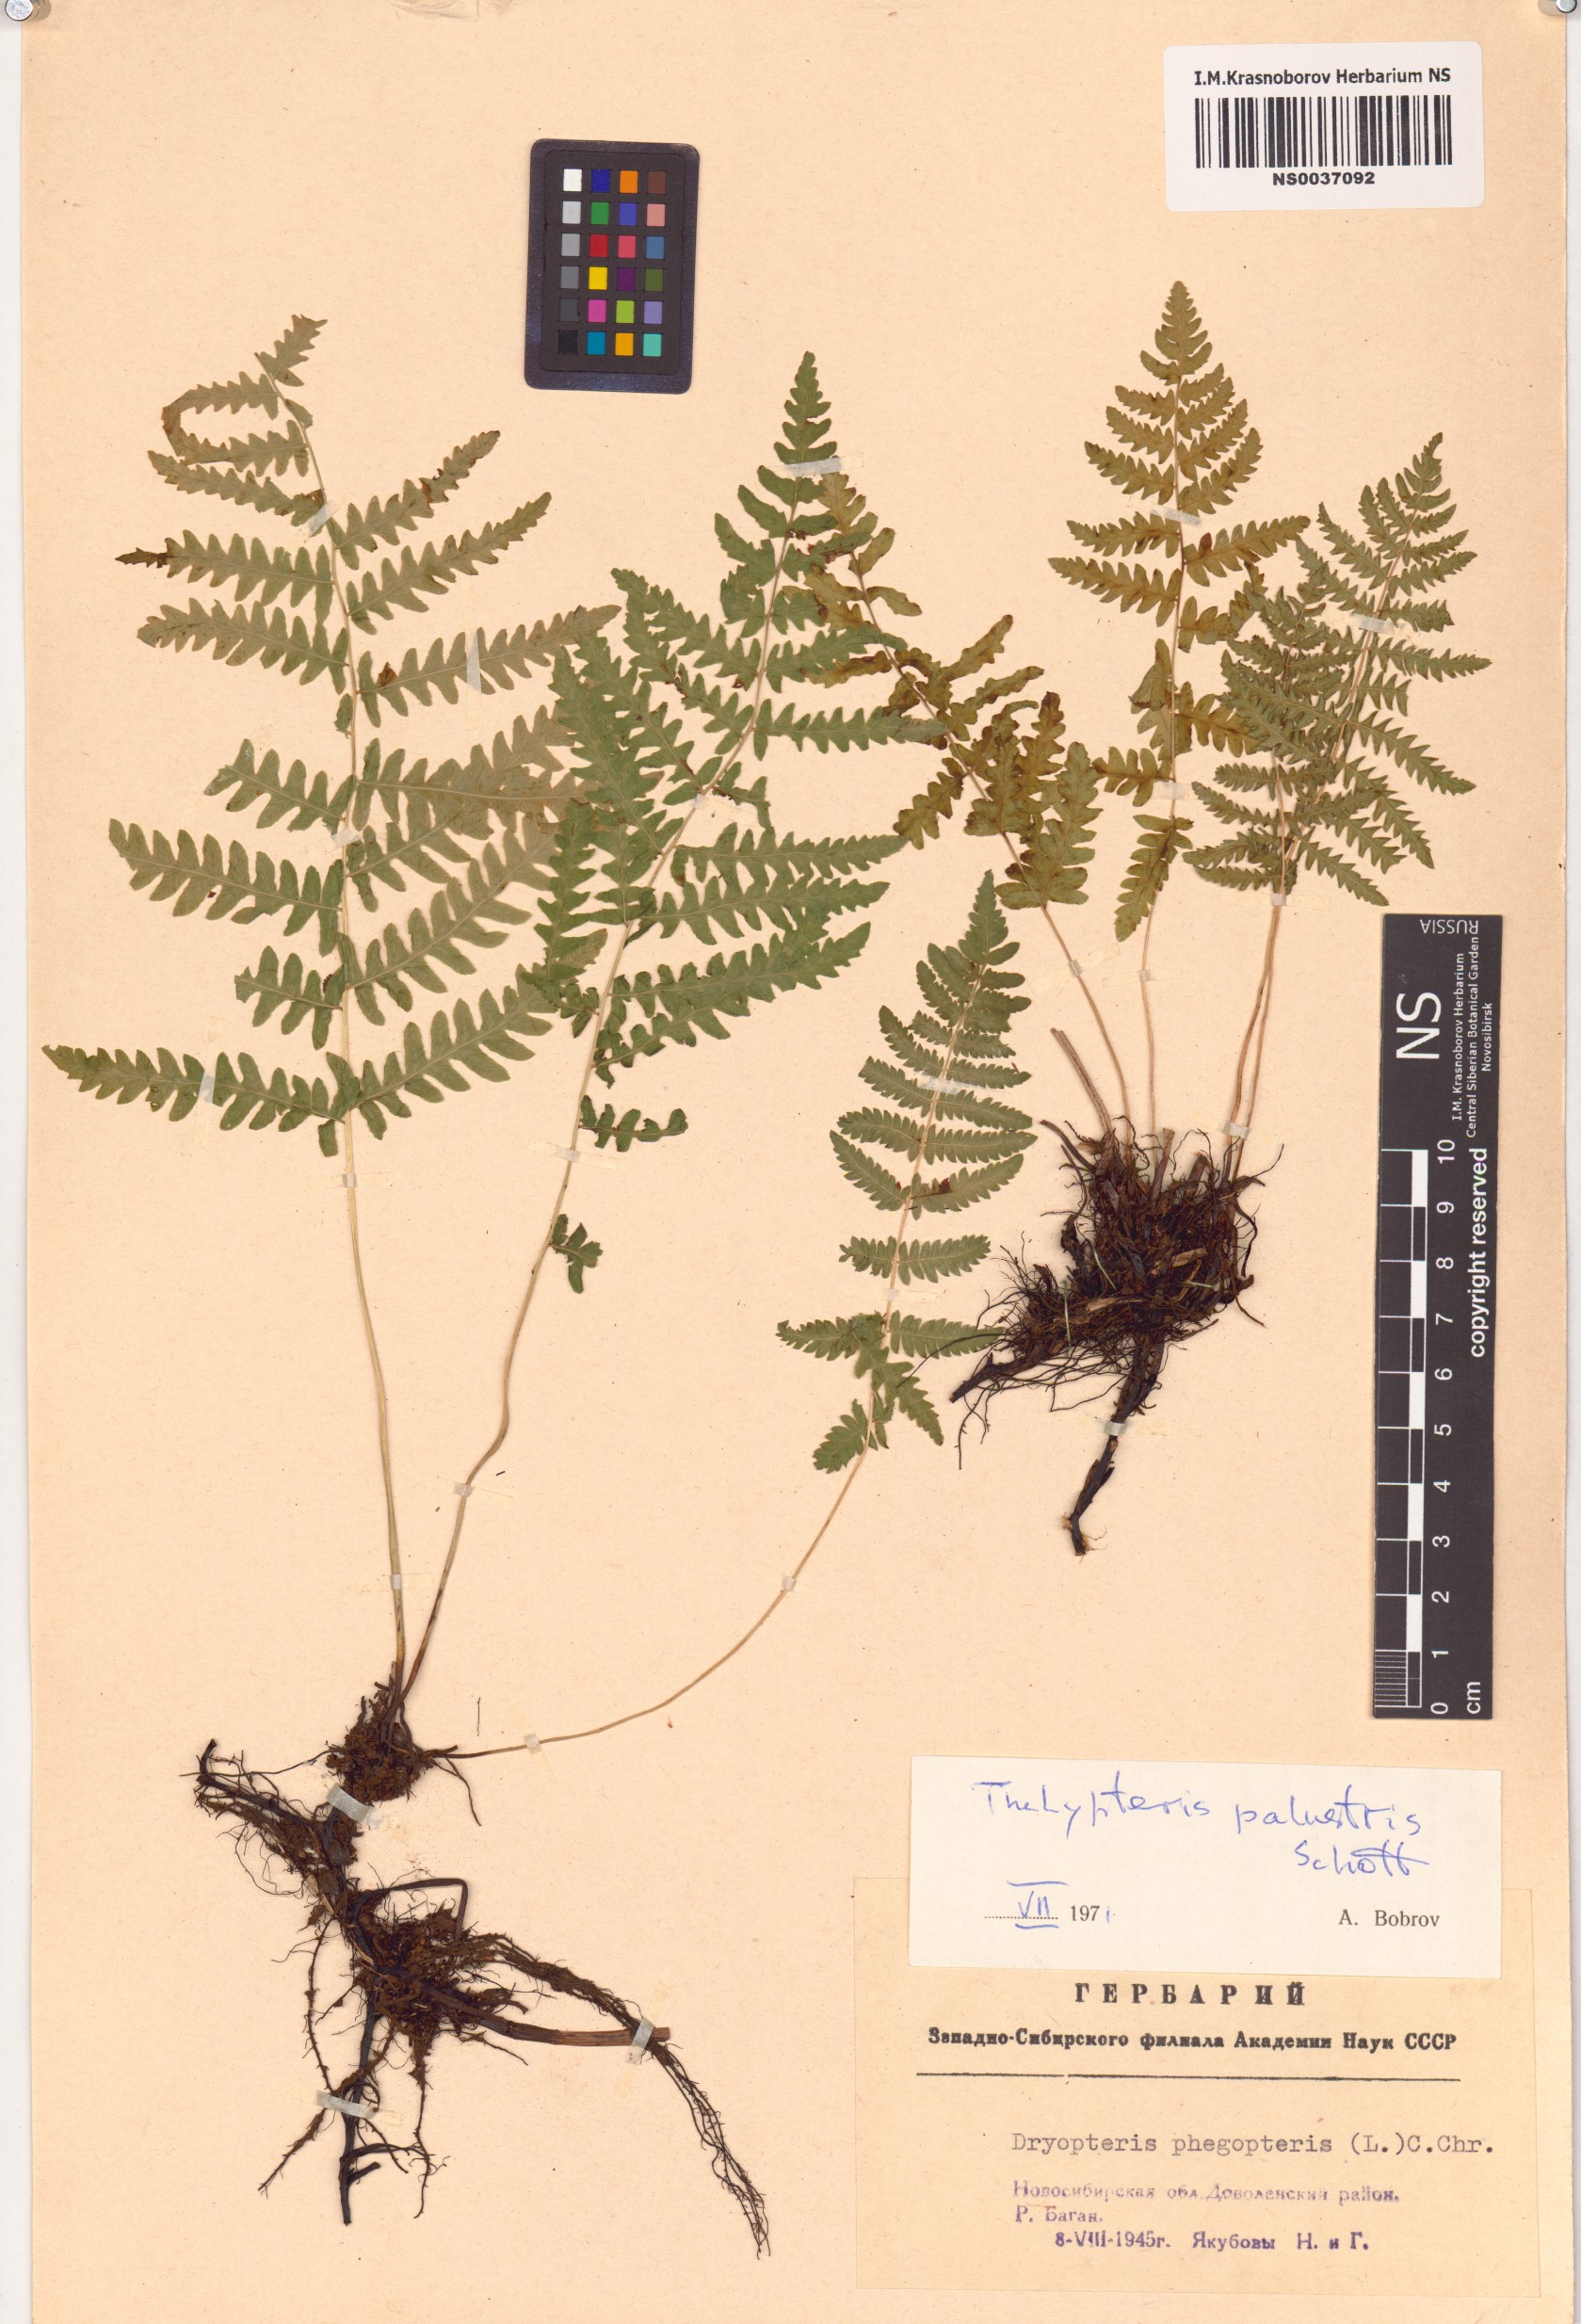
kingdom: Plantae
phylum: Tracheophyta
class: Polypodiopsida
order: Polypodiales
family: Thelypteridaceae
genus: Thelypteris
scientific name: Thelypteris palustris
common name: Marsh fern
